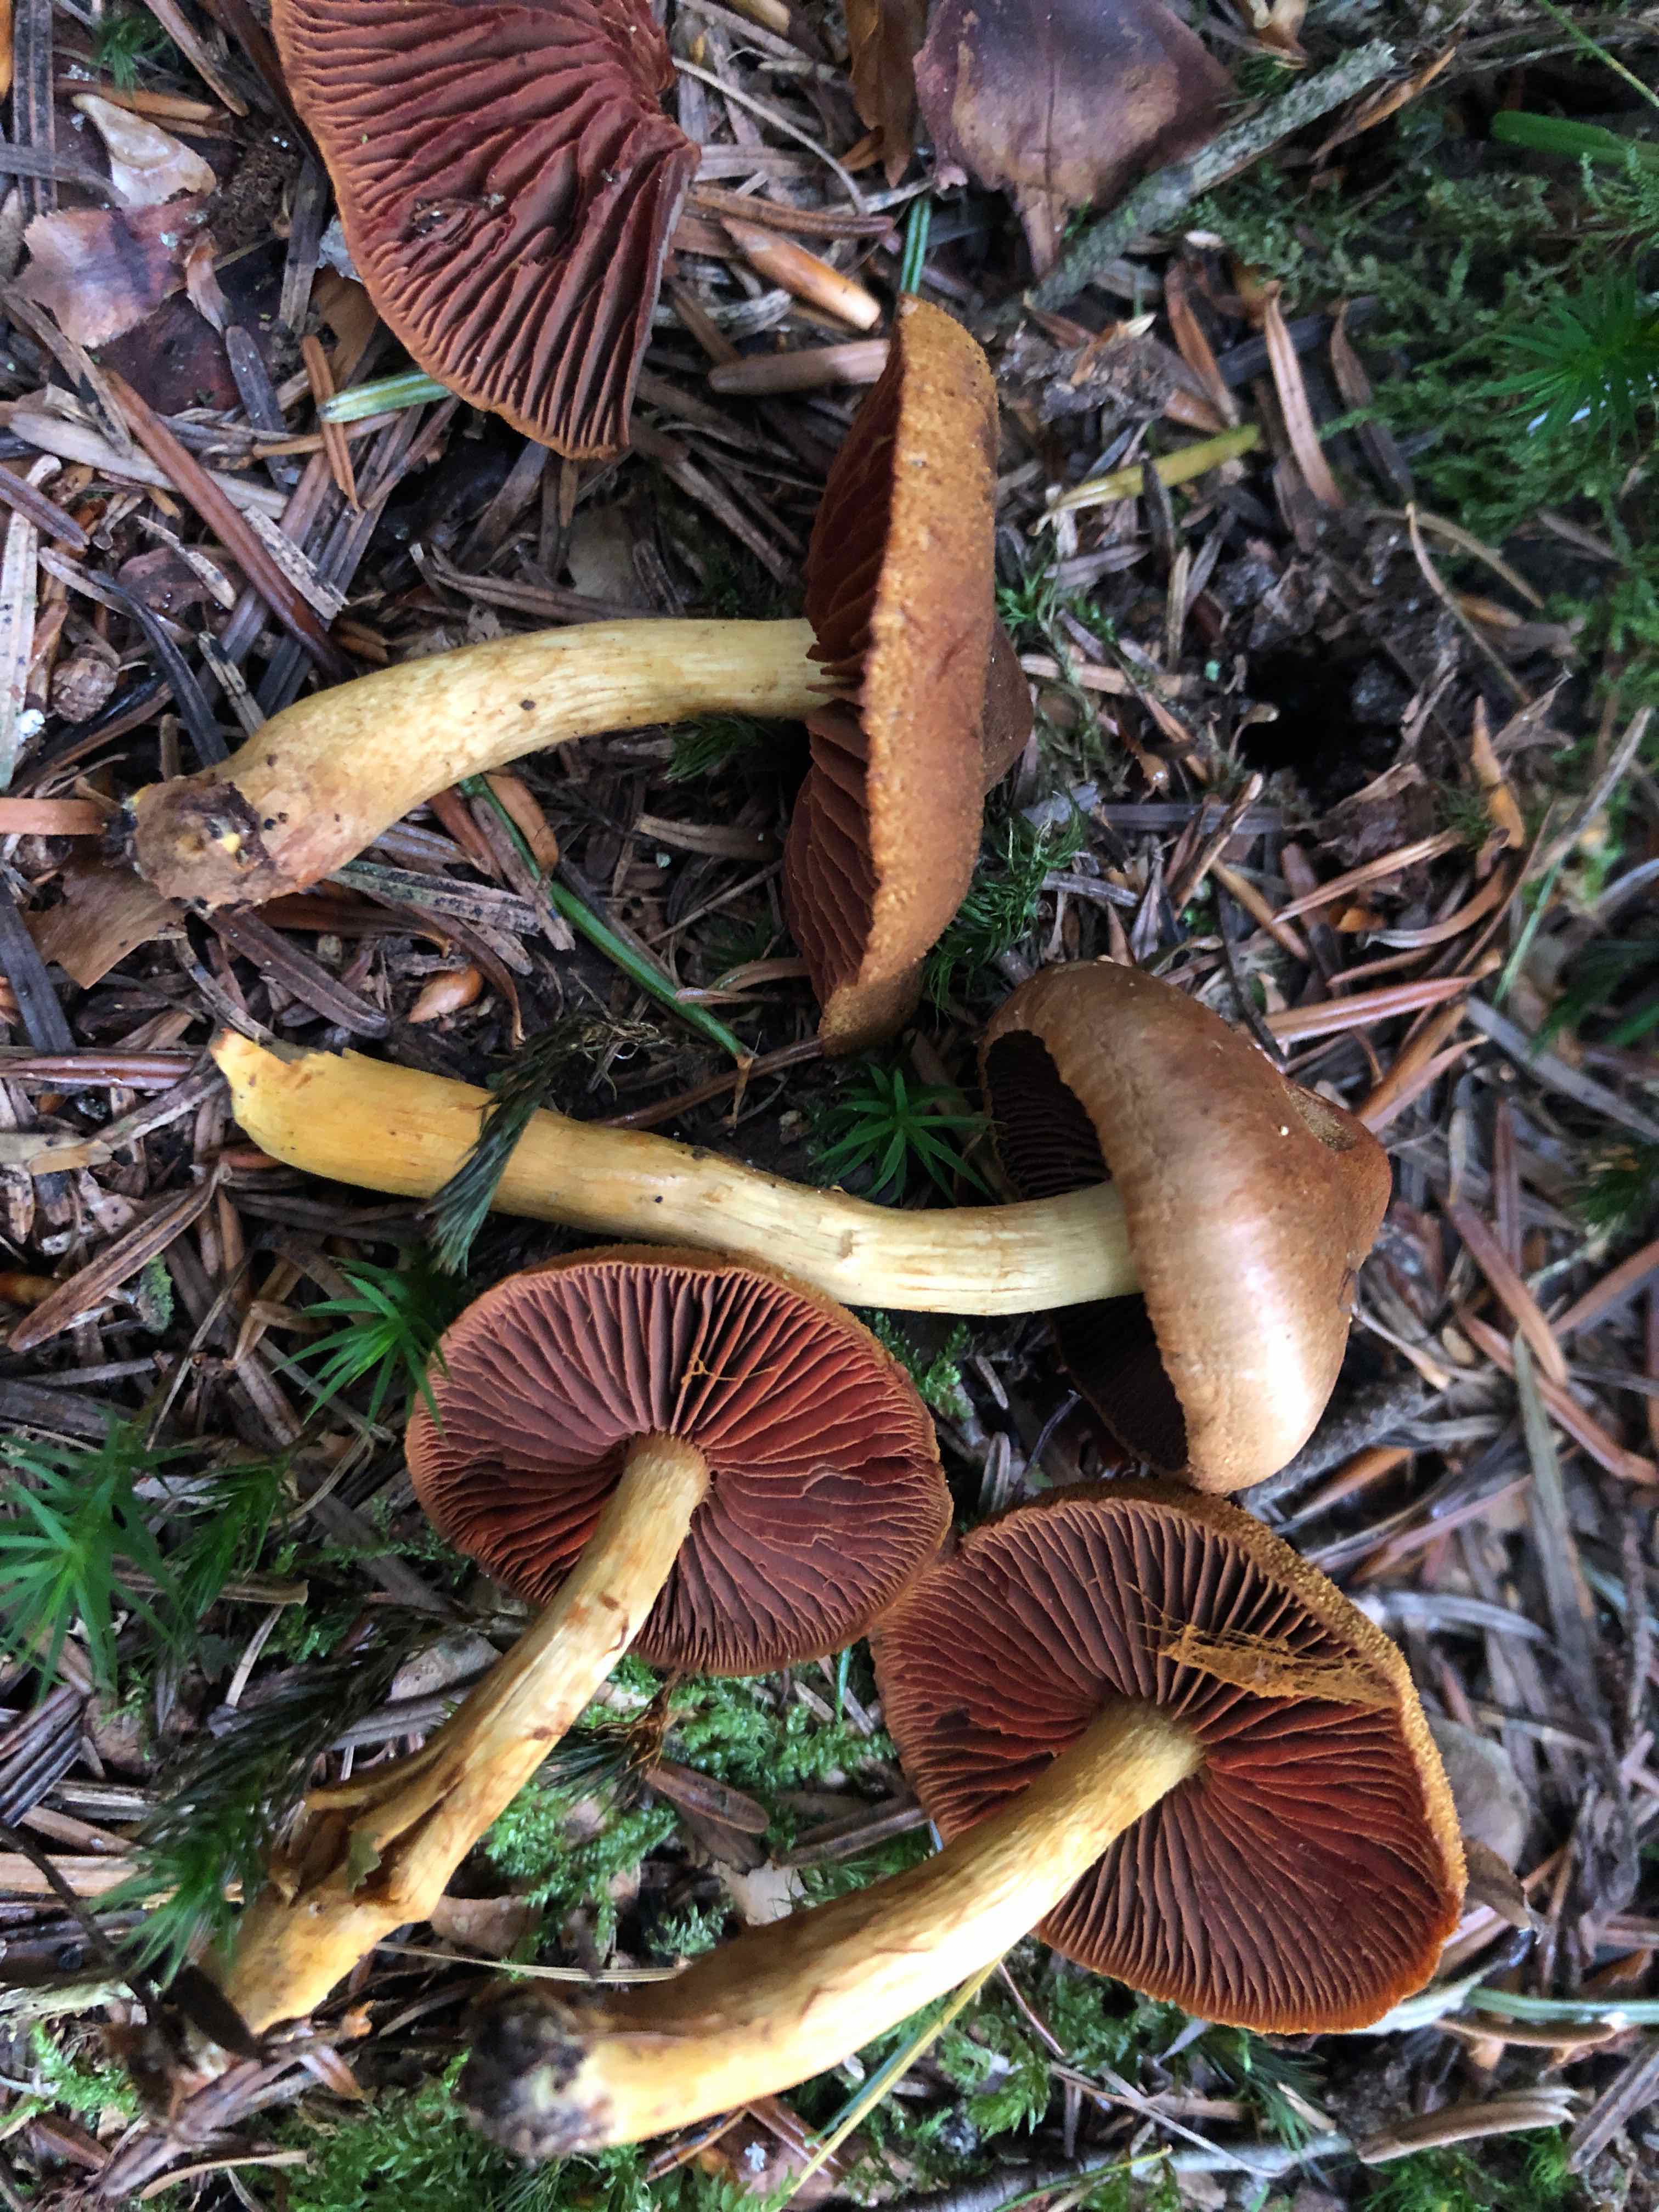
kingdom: Fungi
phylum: Basidiomycota
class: Agaricomycetes
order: Agaricales
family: Cortinariaceae
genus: Cortinarius
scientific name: Cortinarius
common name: cinnoberbladet slørhat
